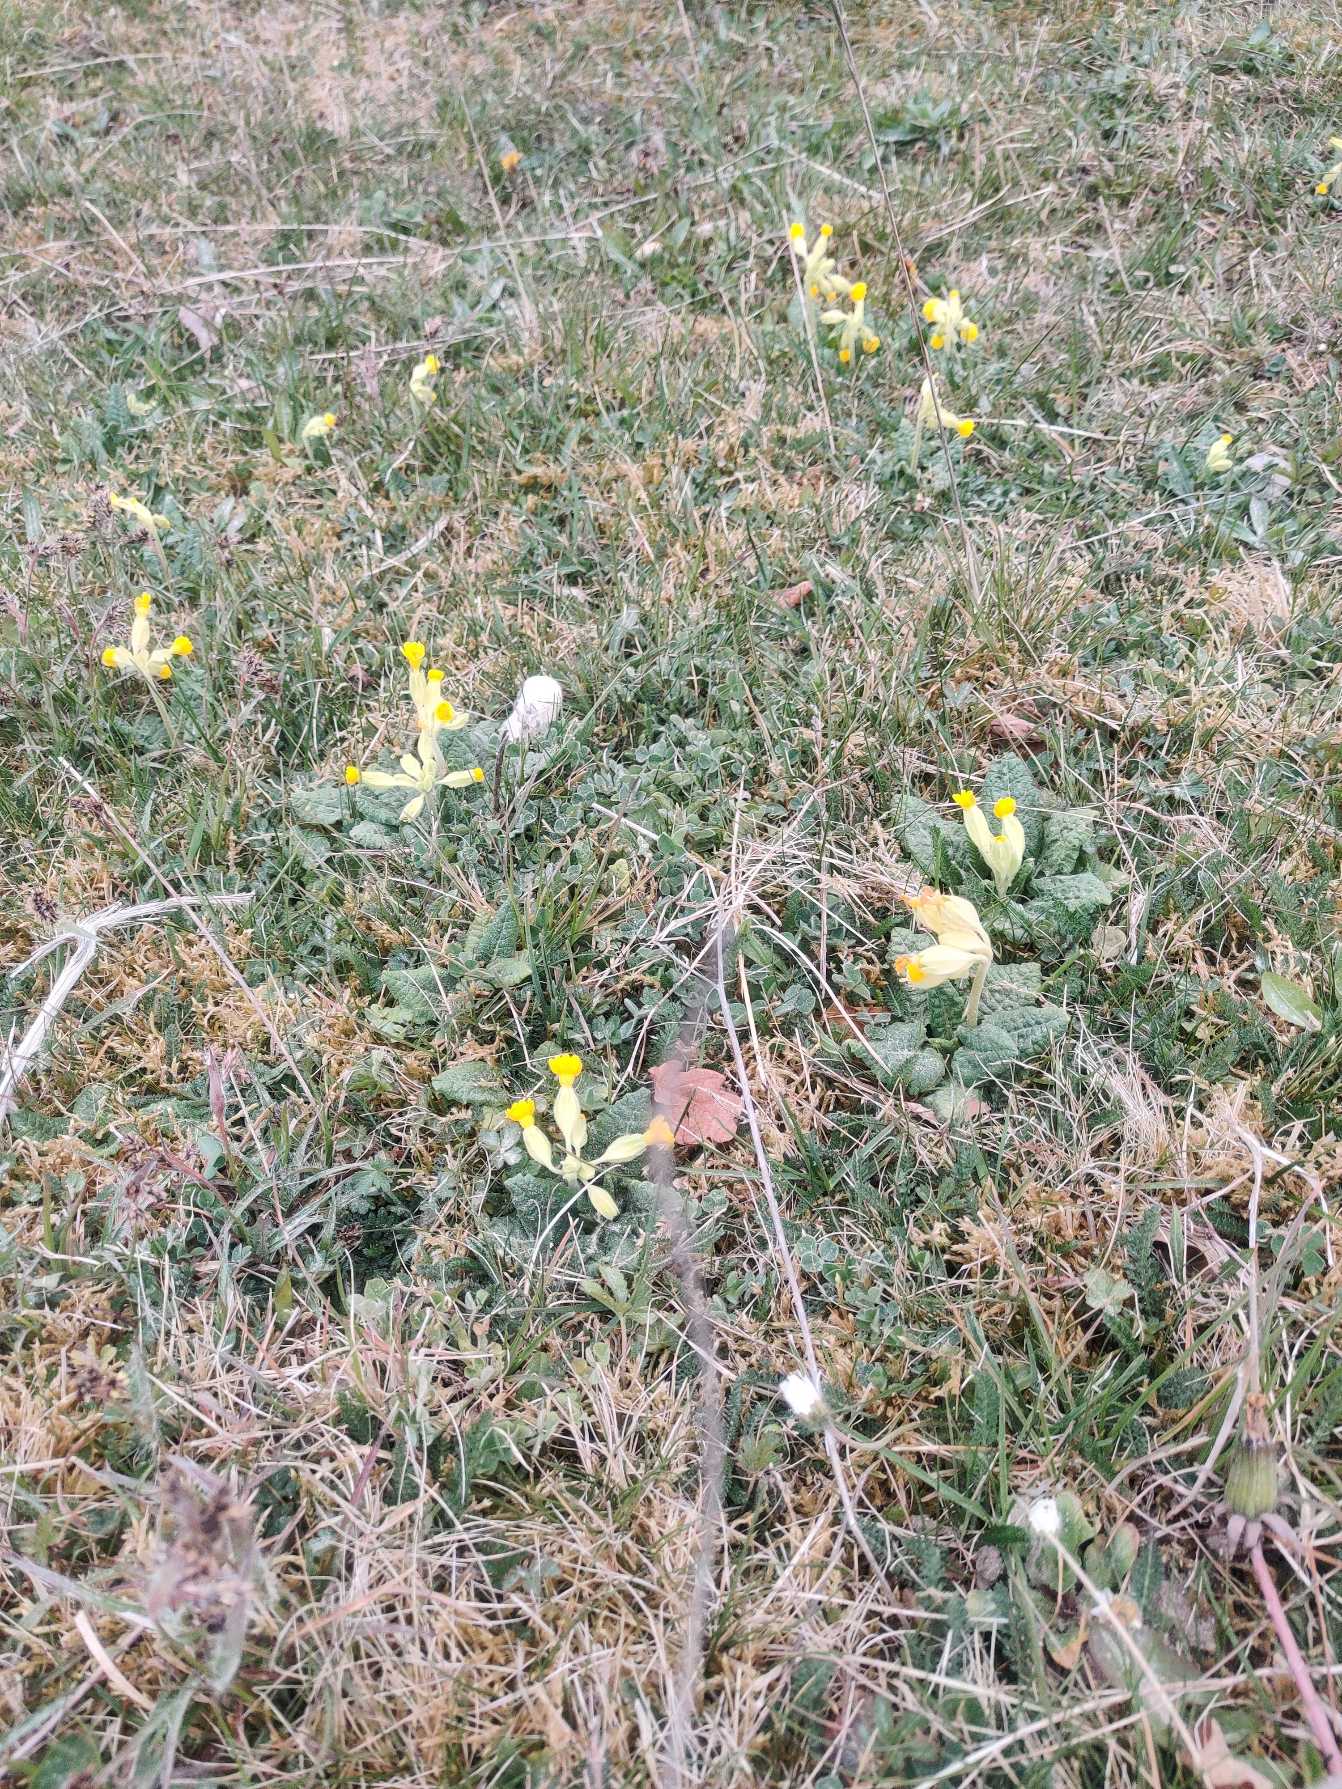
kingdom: Plantae
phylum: Tracheophyta
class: Magnoliopsida
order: Ericales
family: Primulaceae
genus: Primula
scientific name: Primula veris
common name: Hulkravet kodriver
